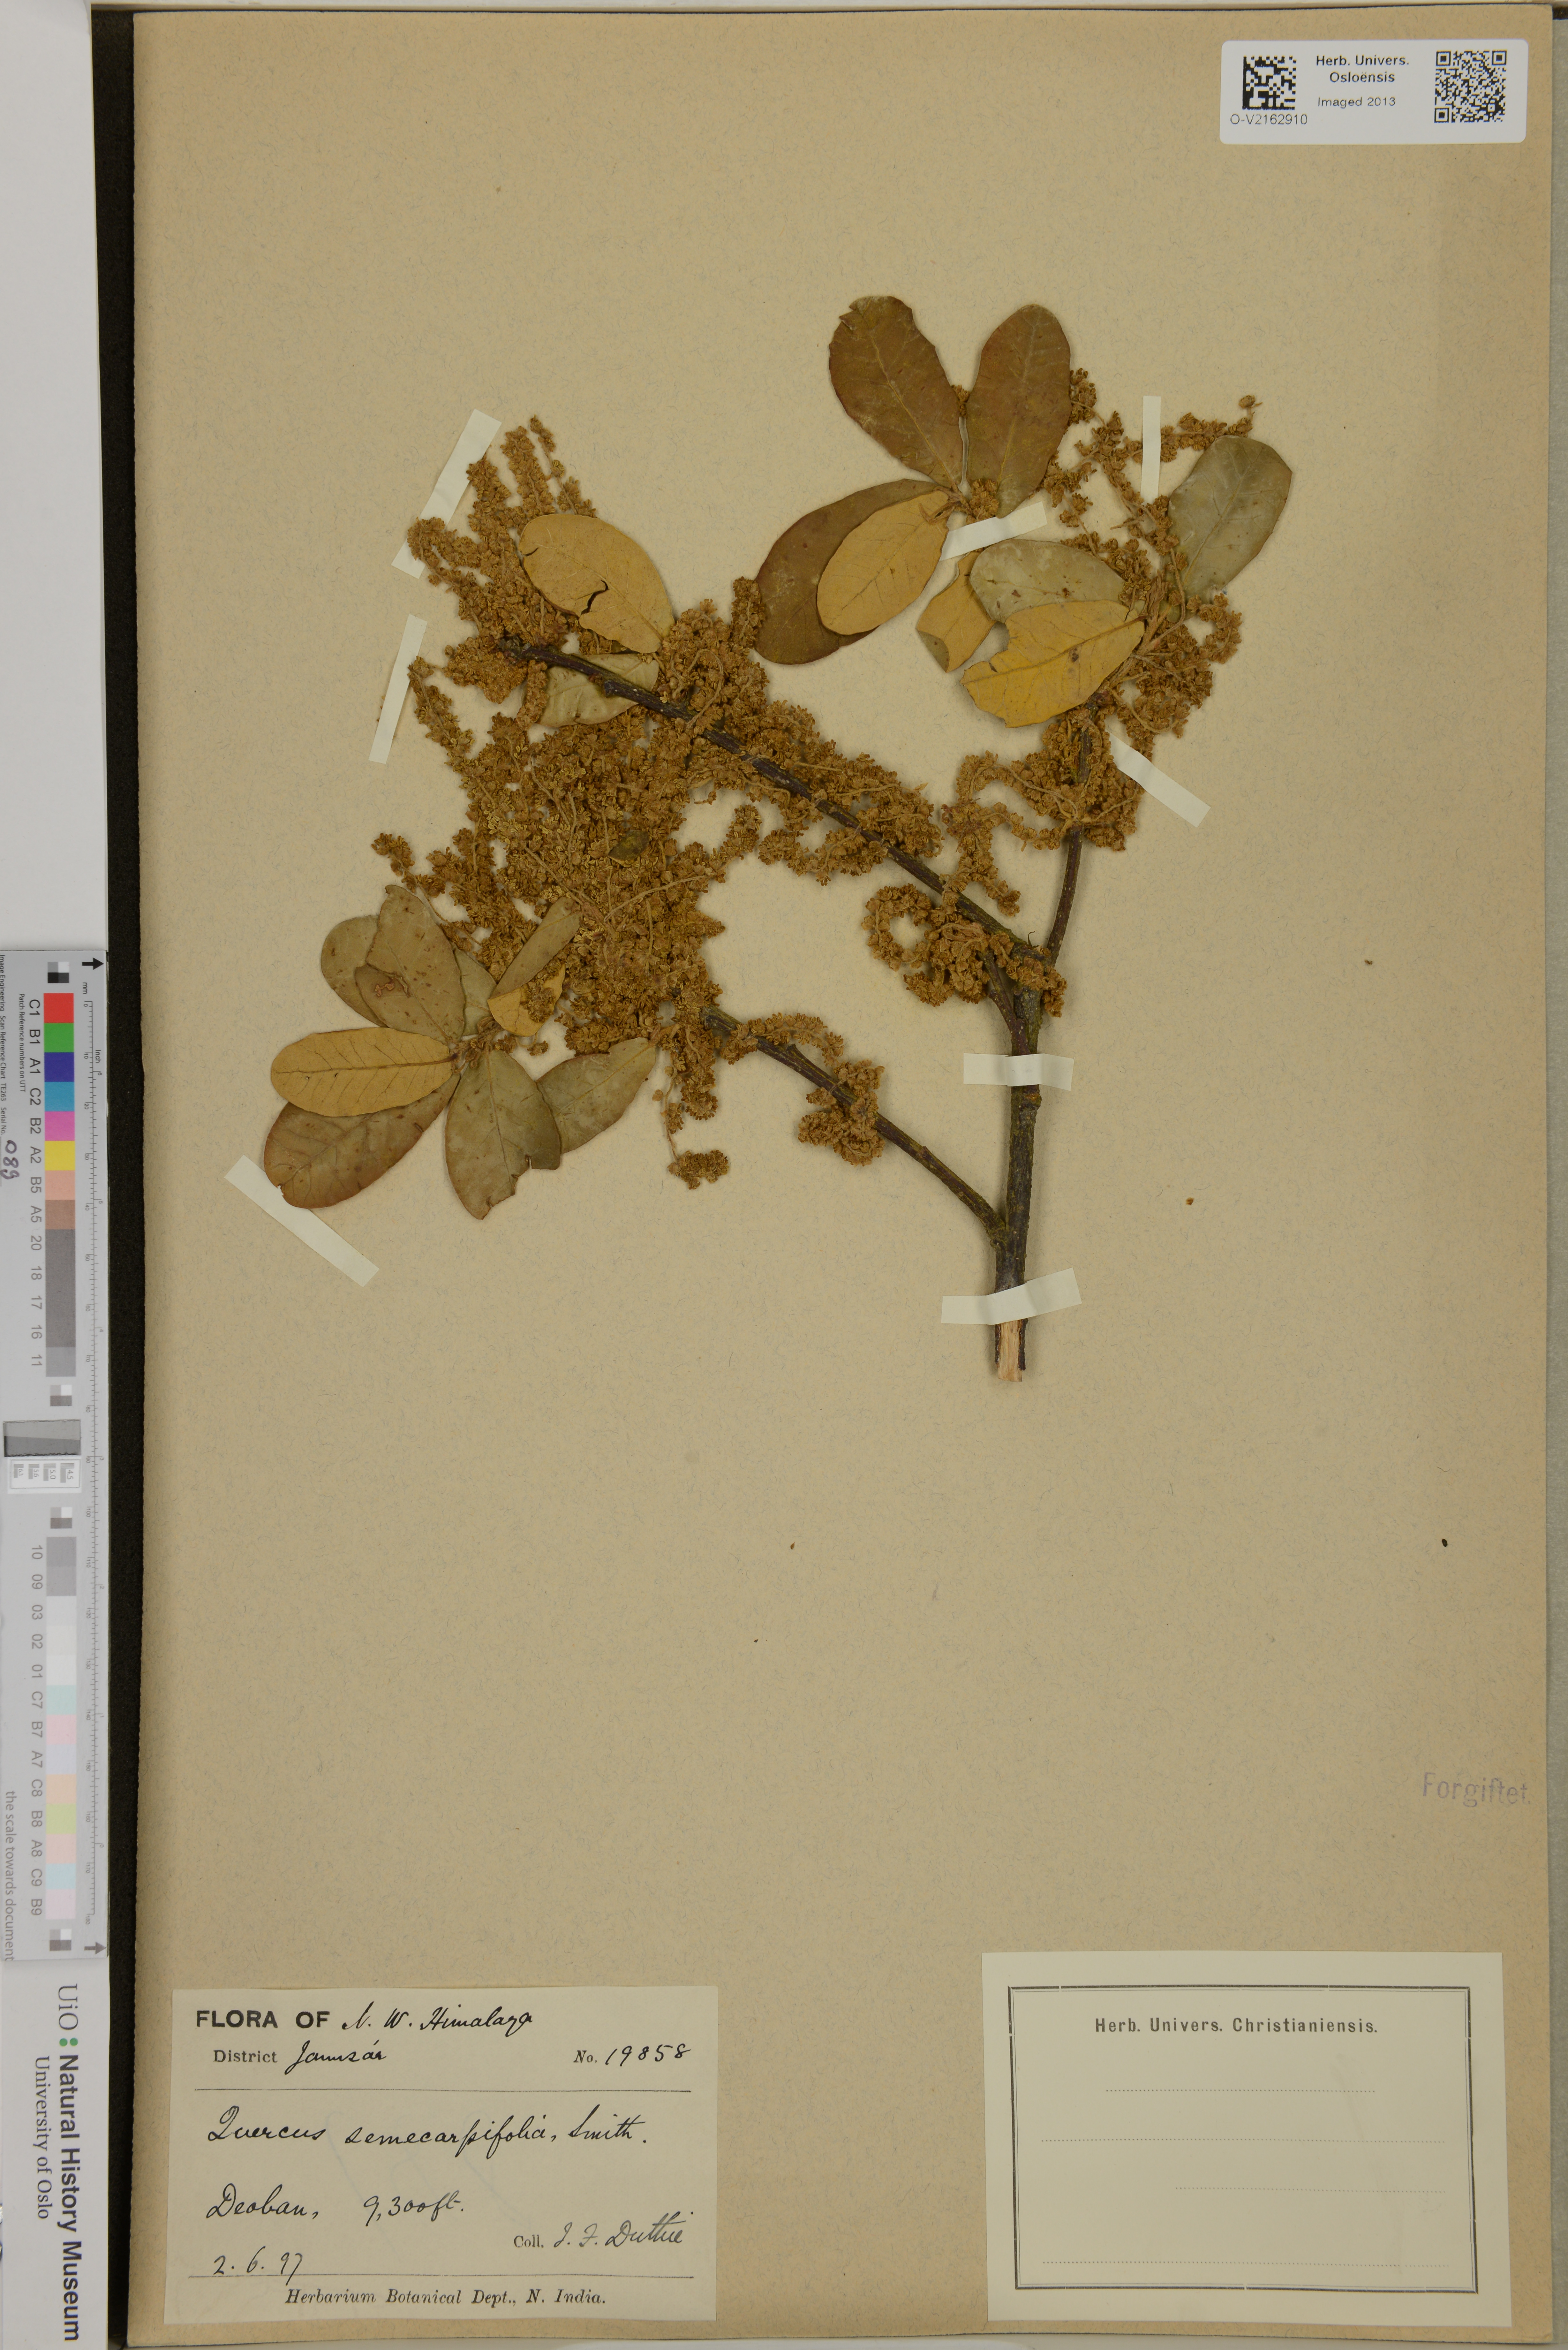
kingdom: Plantae
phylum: Tracheophyta
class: Magnoliopsida
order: Fagales
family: Fagaceae
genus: Quercus
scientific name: Quercus semecarpifolia
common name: Brown oak
